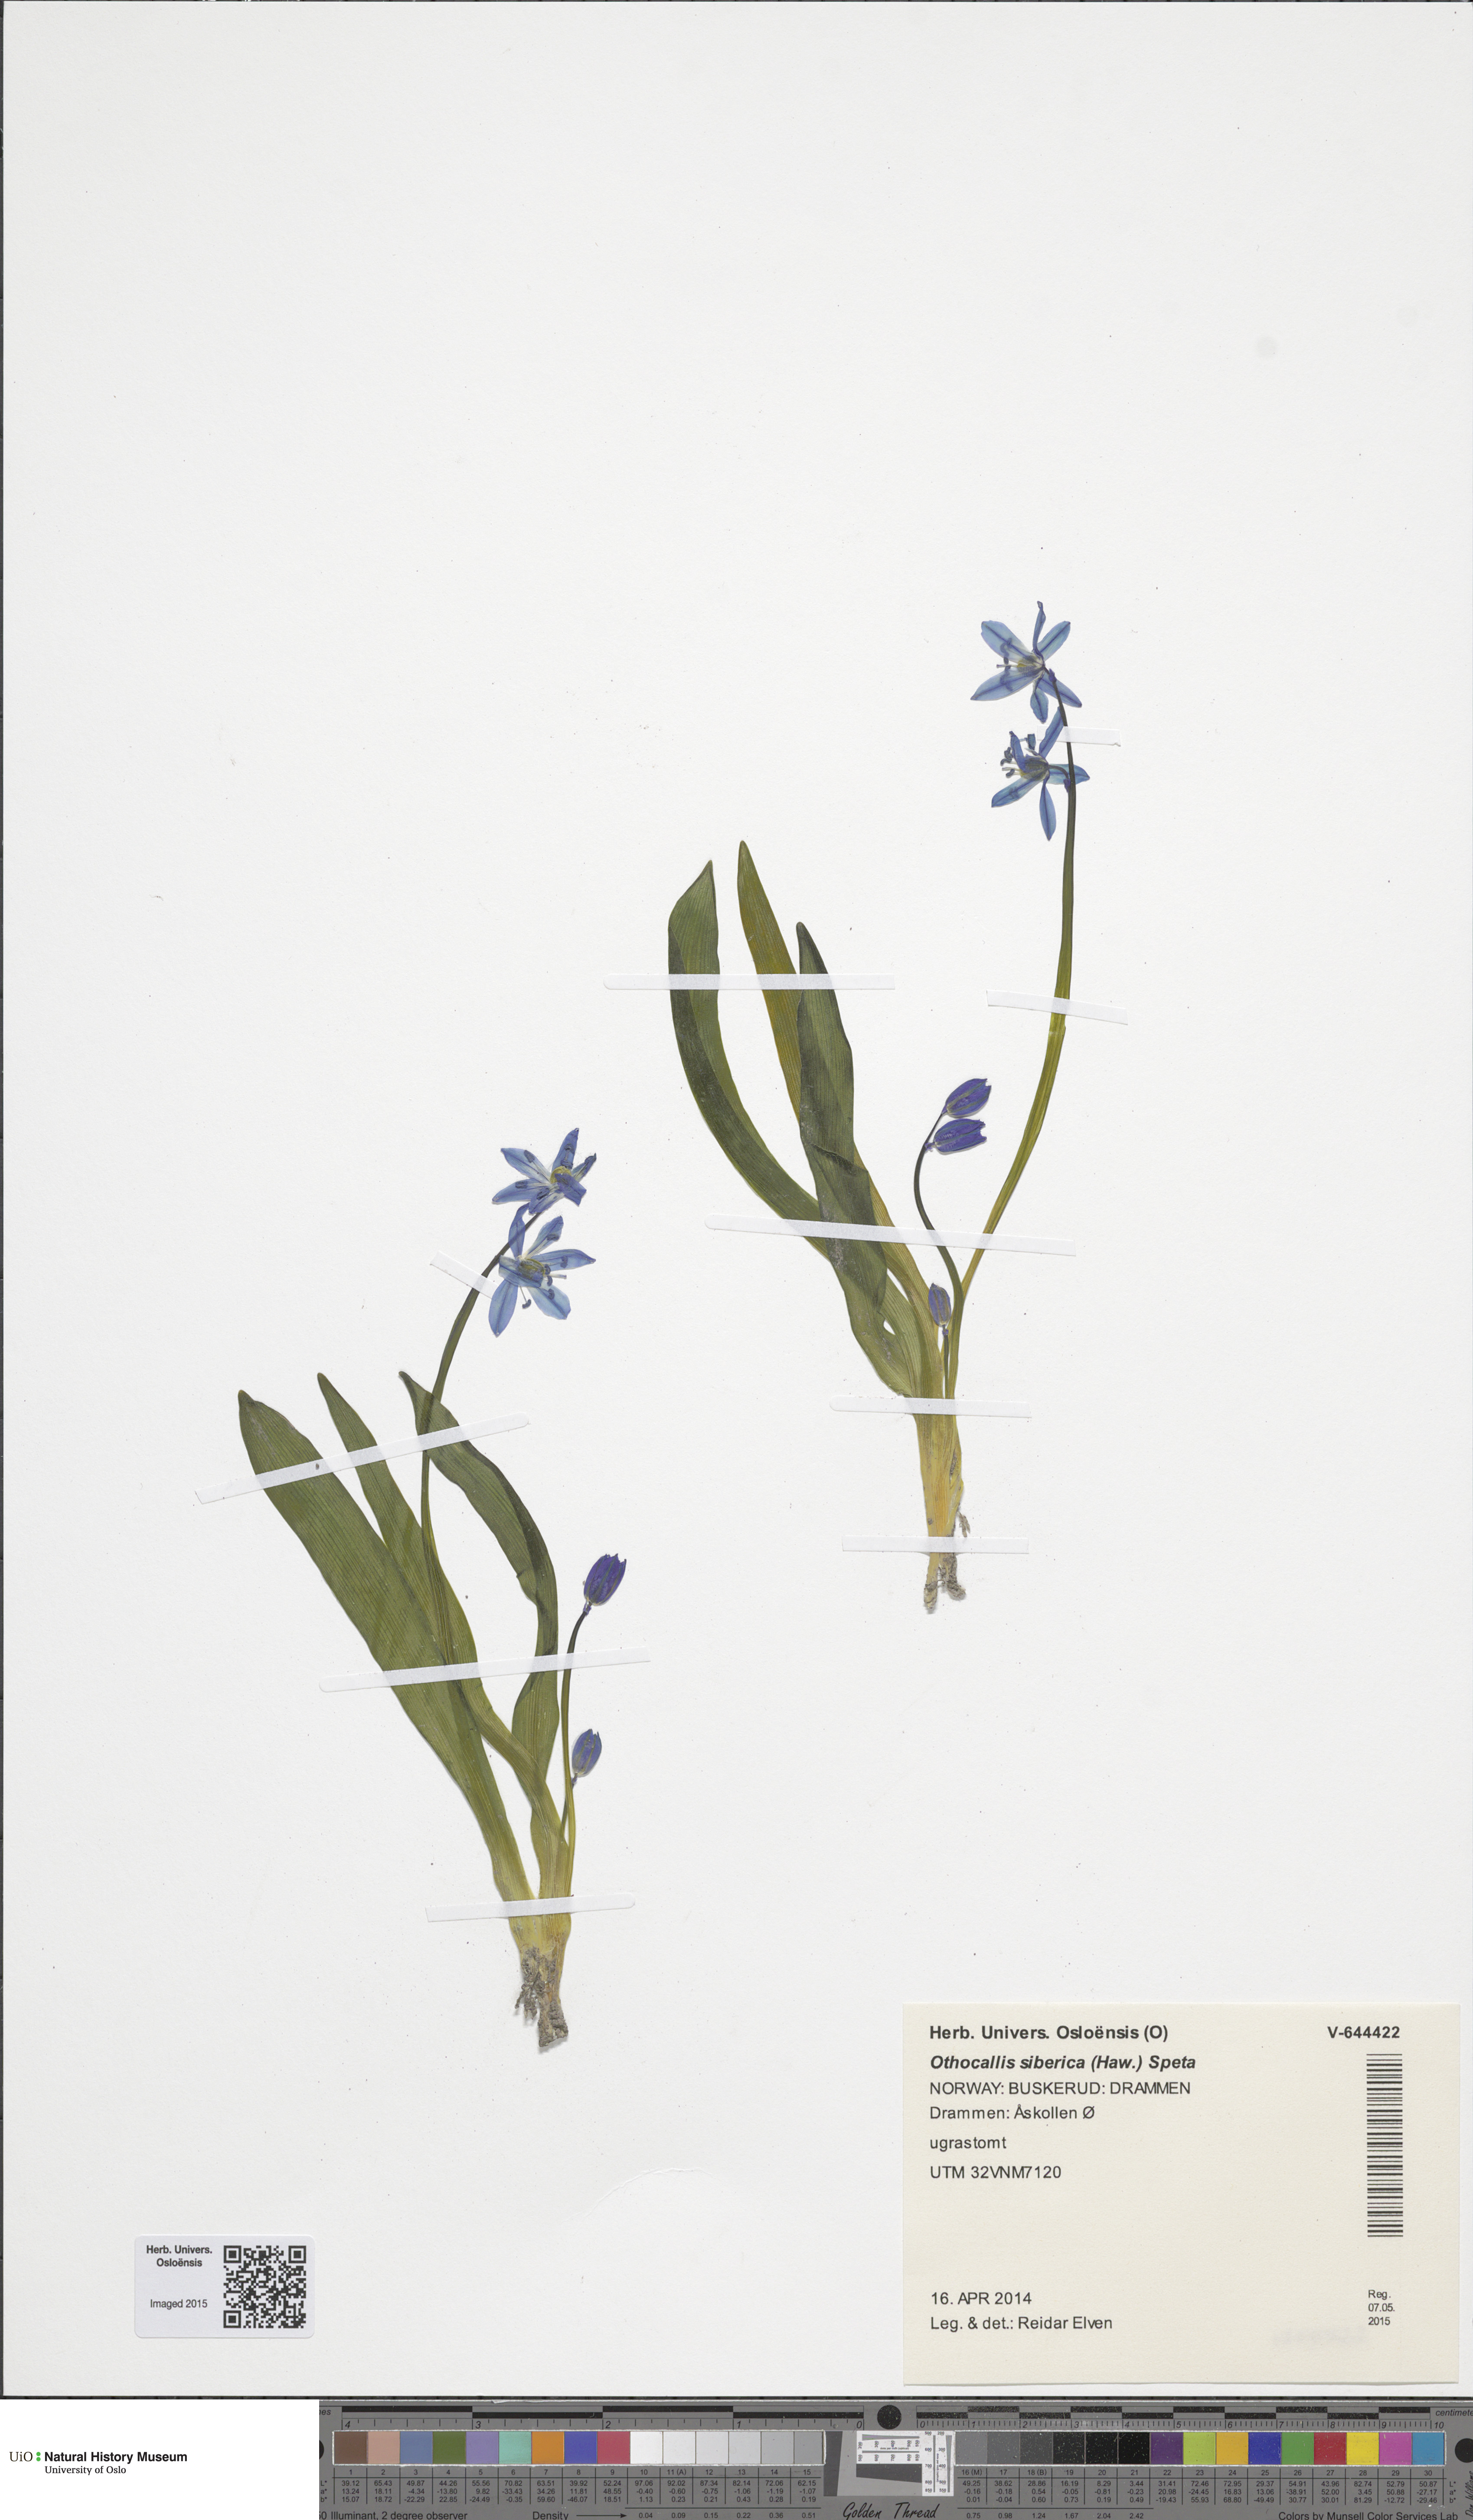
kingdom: Plantae
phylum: Tracheophyta
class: Liliopsida
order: Asparagales
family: Asparagaceae
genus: Scilla
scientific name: Scilla siberica
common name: Siberian squill
